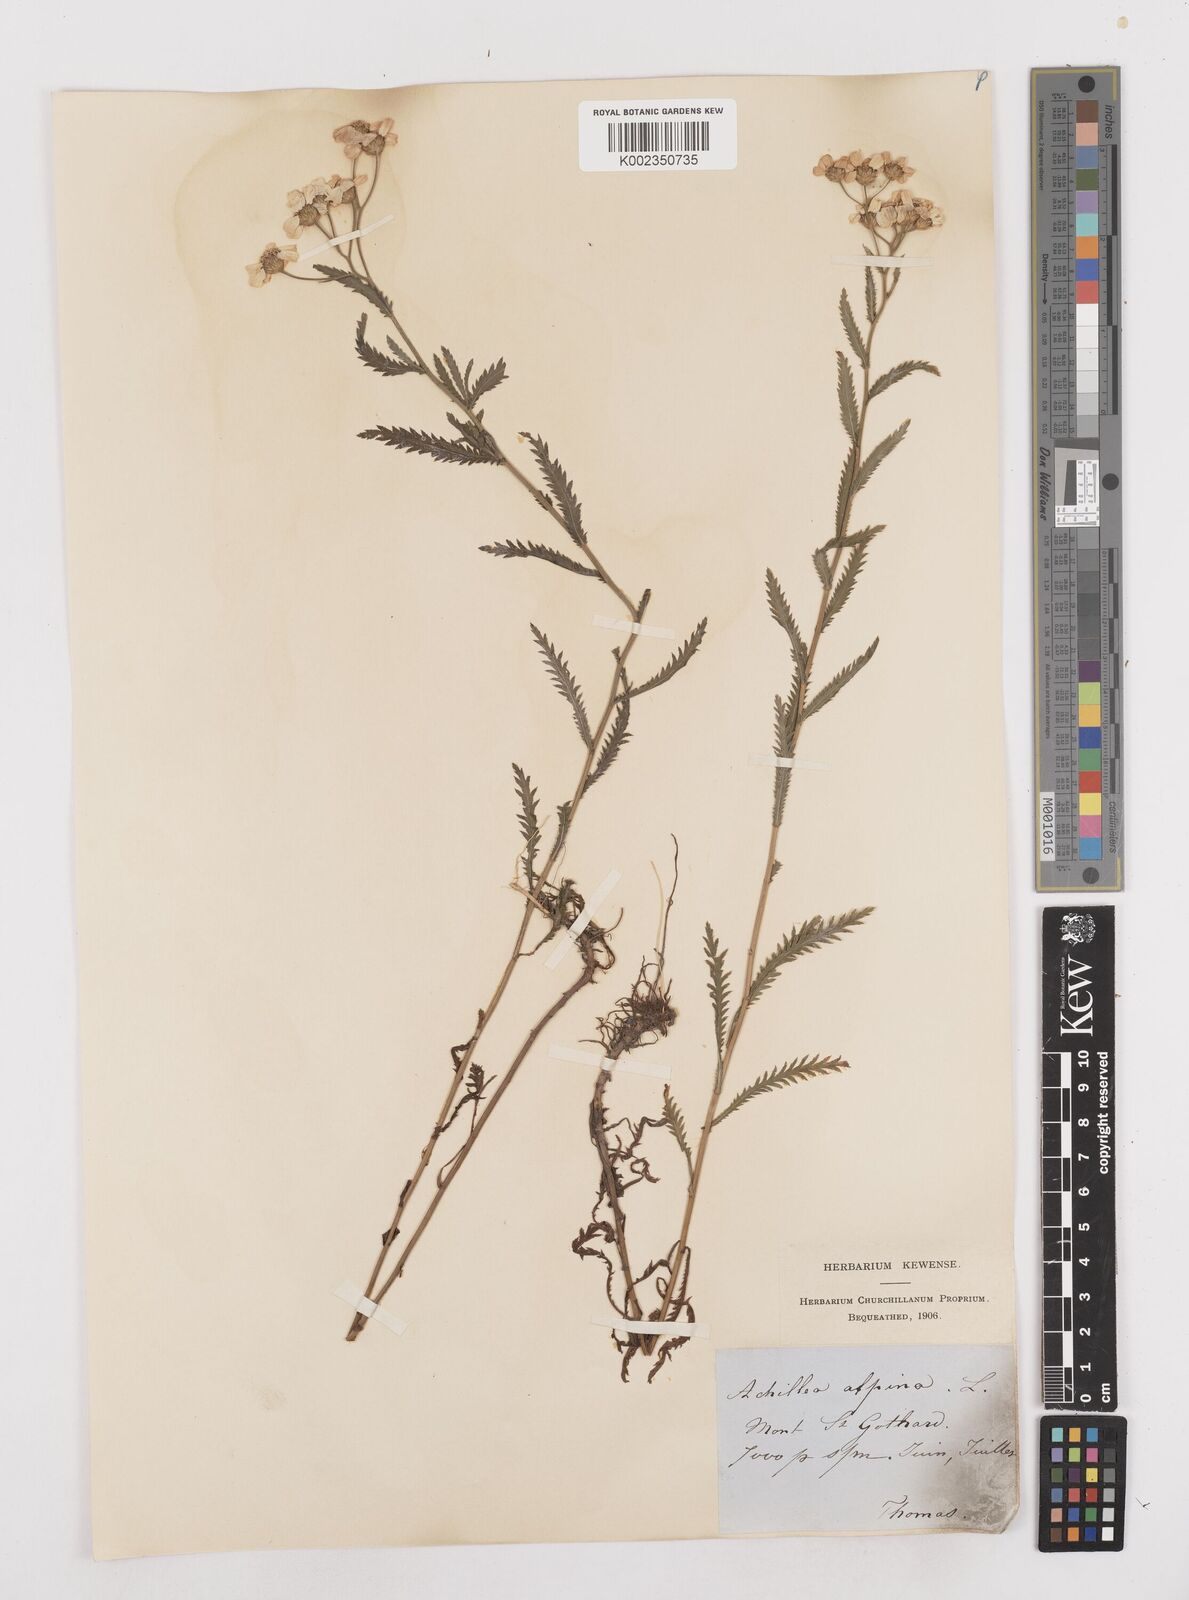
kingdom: Plantae
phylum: Tracheophyta
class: Magnoliopsida
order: Asterales
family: Asteraceae
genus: Achillea
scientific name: Achillea impatiens
